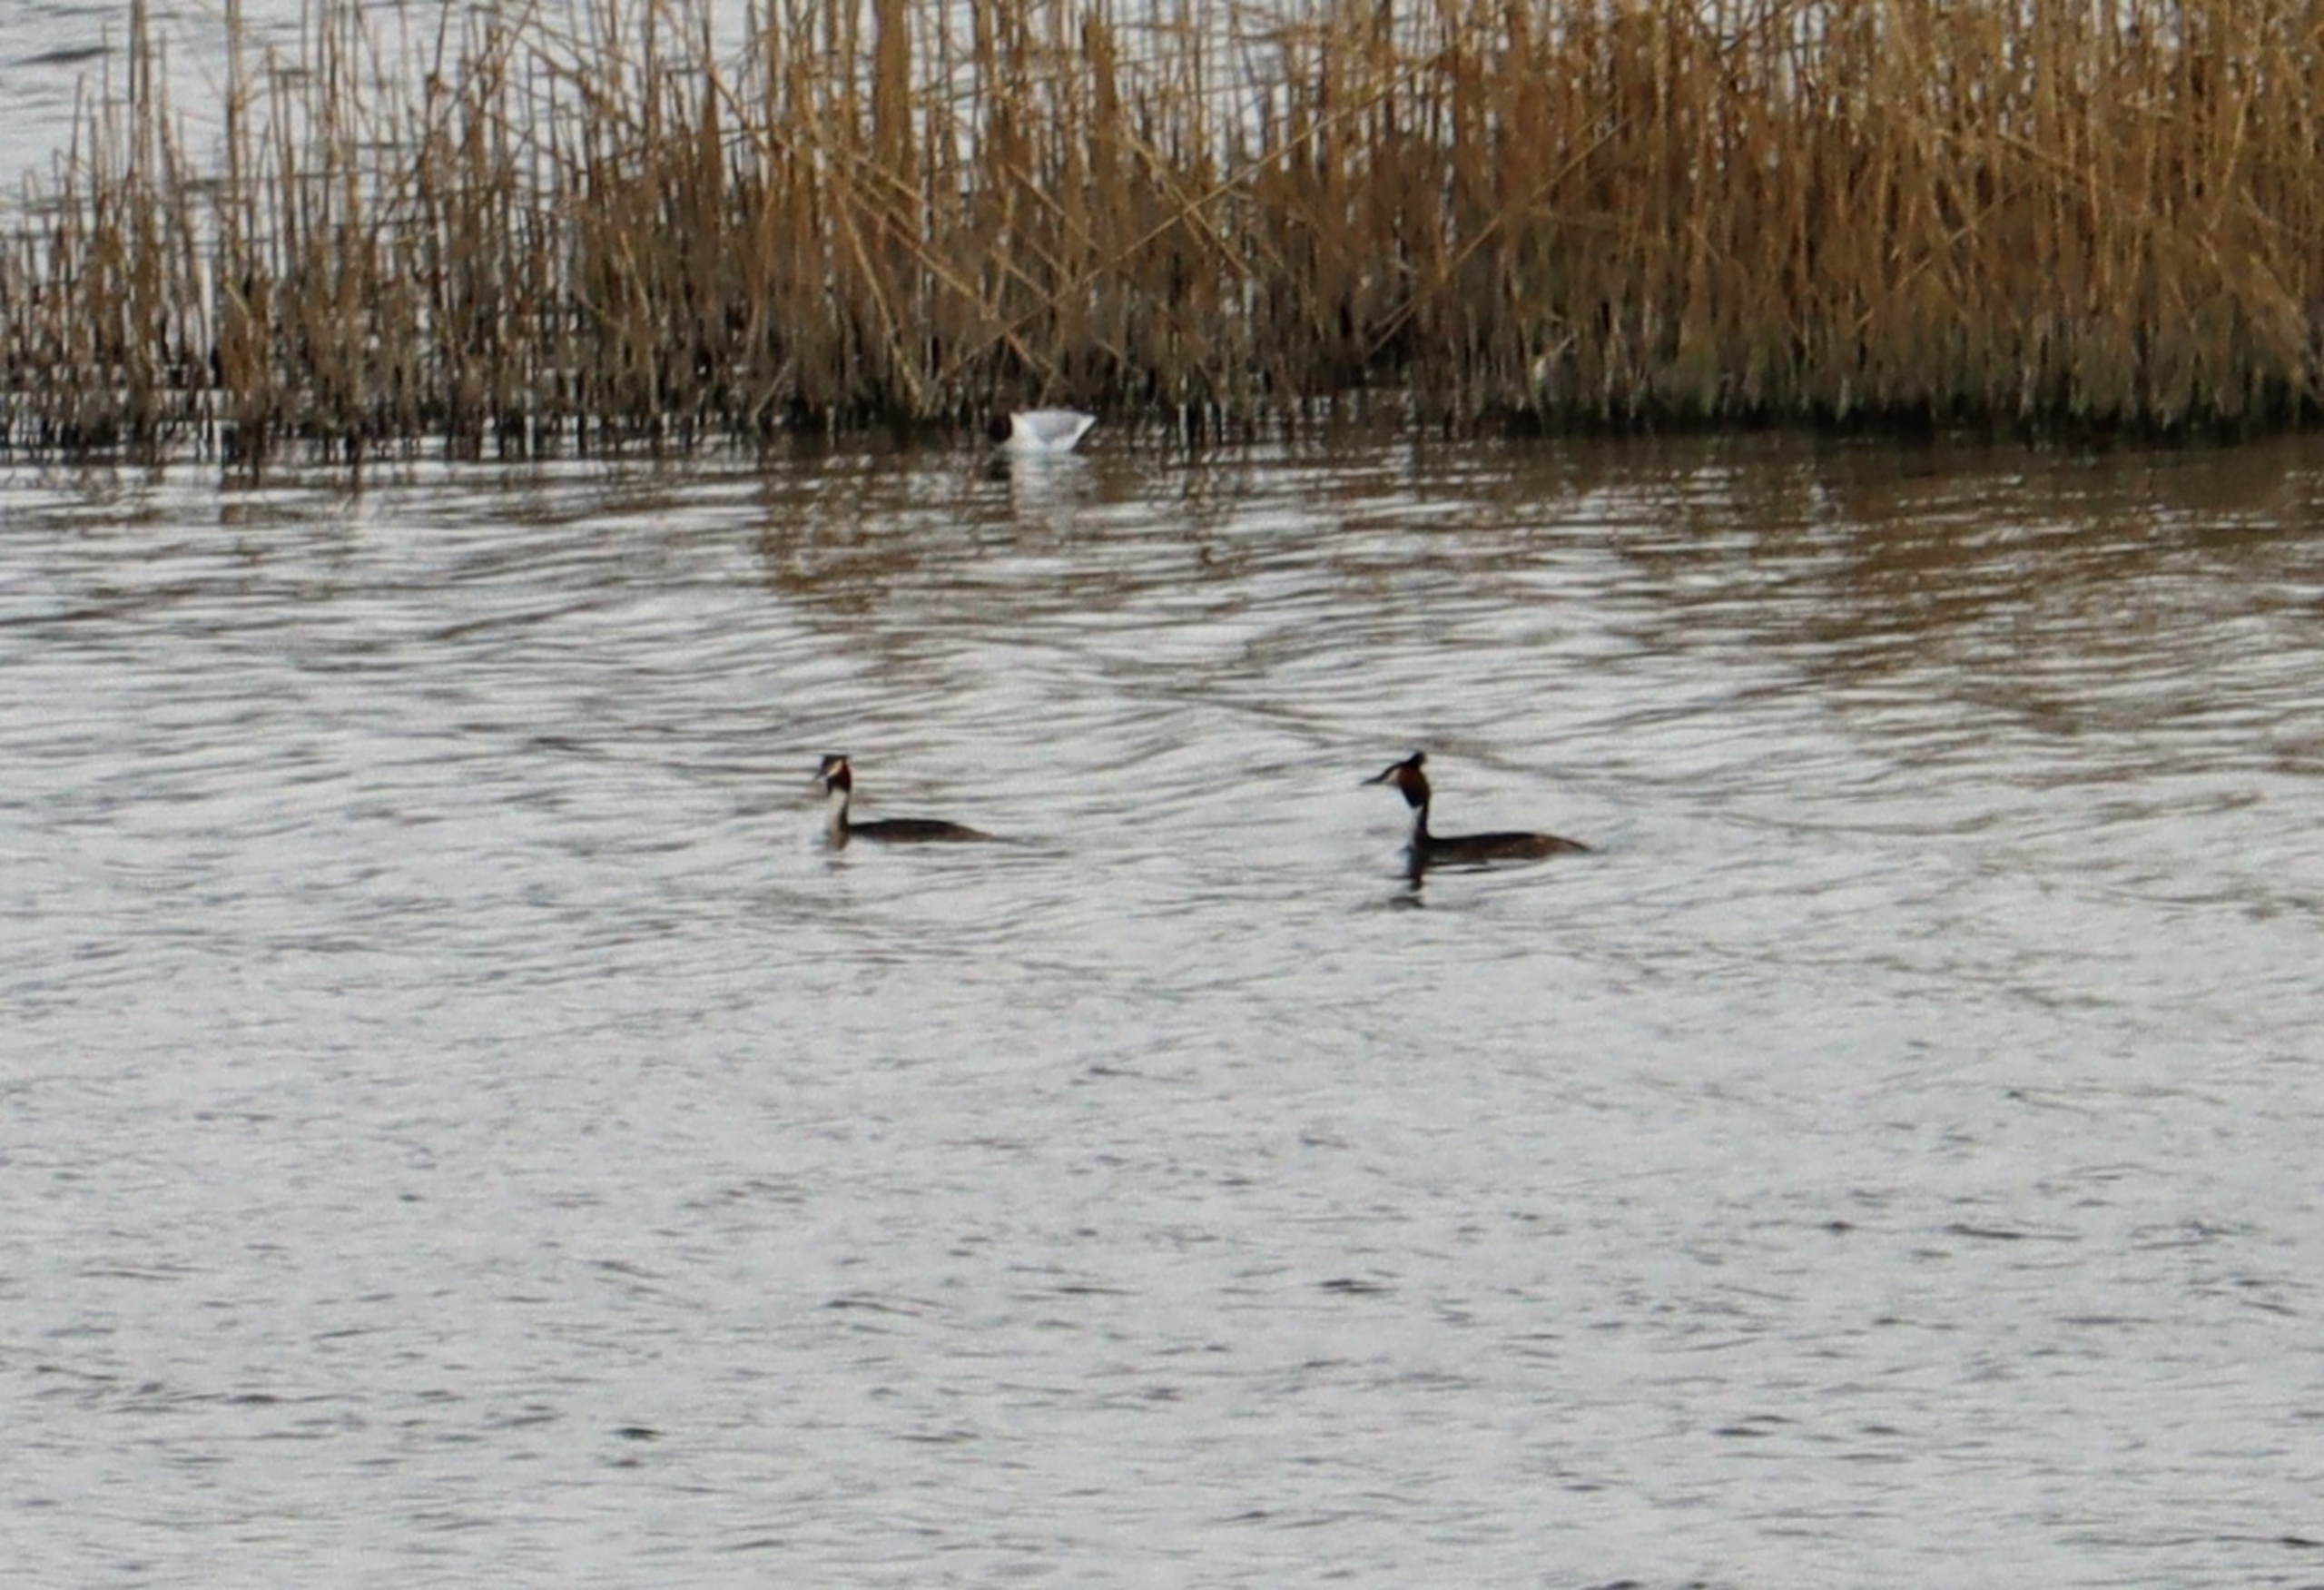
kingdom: Animalia
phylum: Chordata
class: Aves
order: Podicipediformes
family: Podicipedidae
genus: Podiceps
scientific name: Podiceps cristatus
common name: Toppet lappedykker
